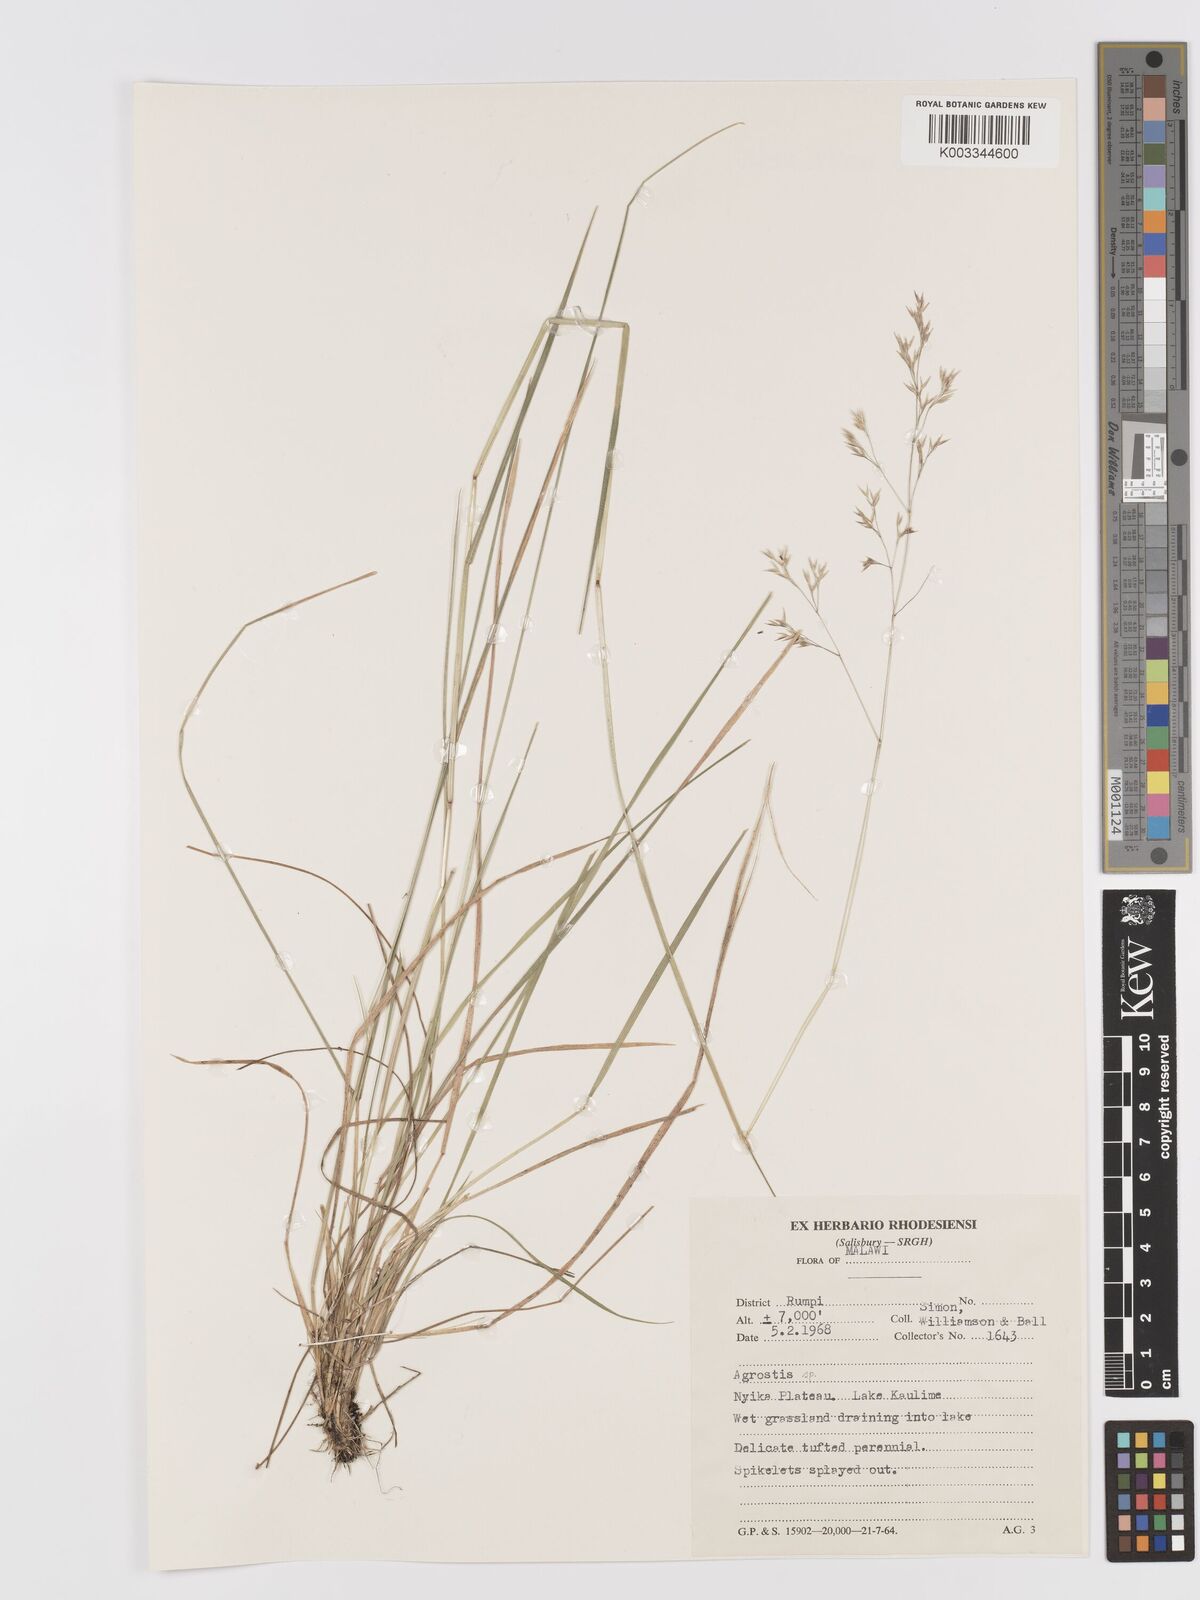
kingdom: Plantae
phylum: Tracheophyta
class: Liliopsida
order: Poales
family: Poaceae
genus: Agrostis
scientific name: Agrostis
